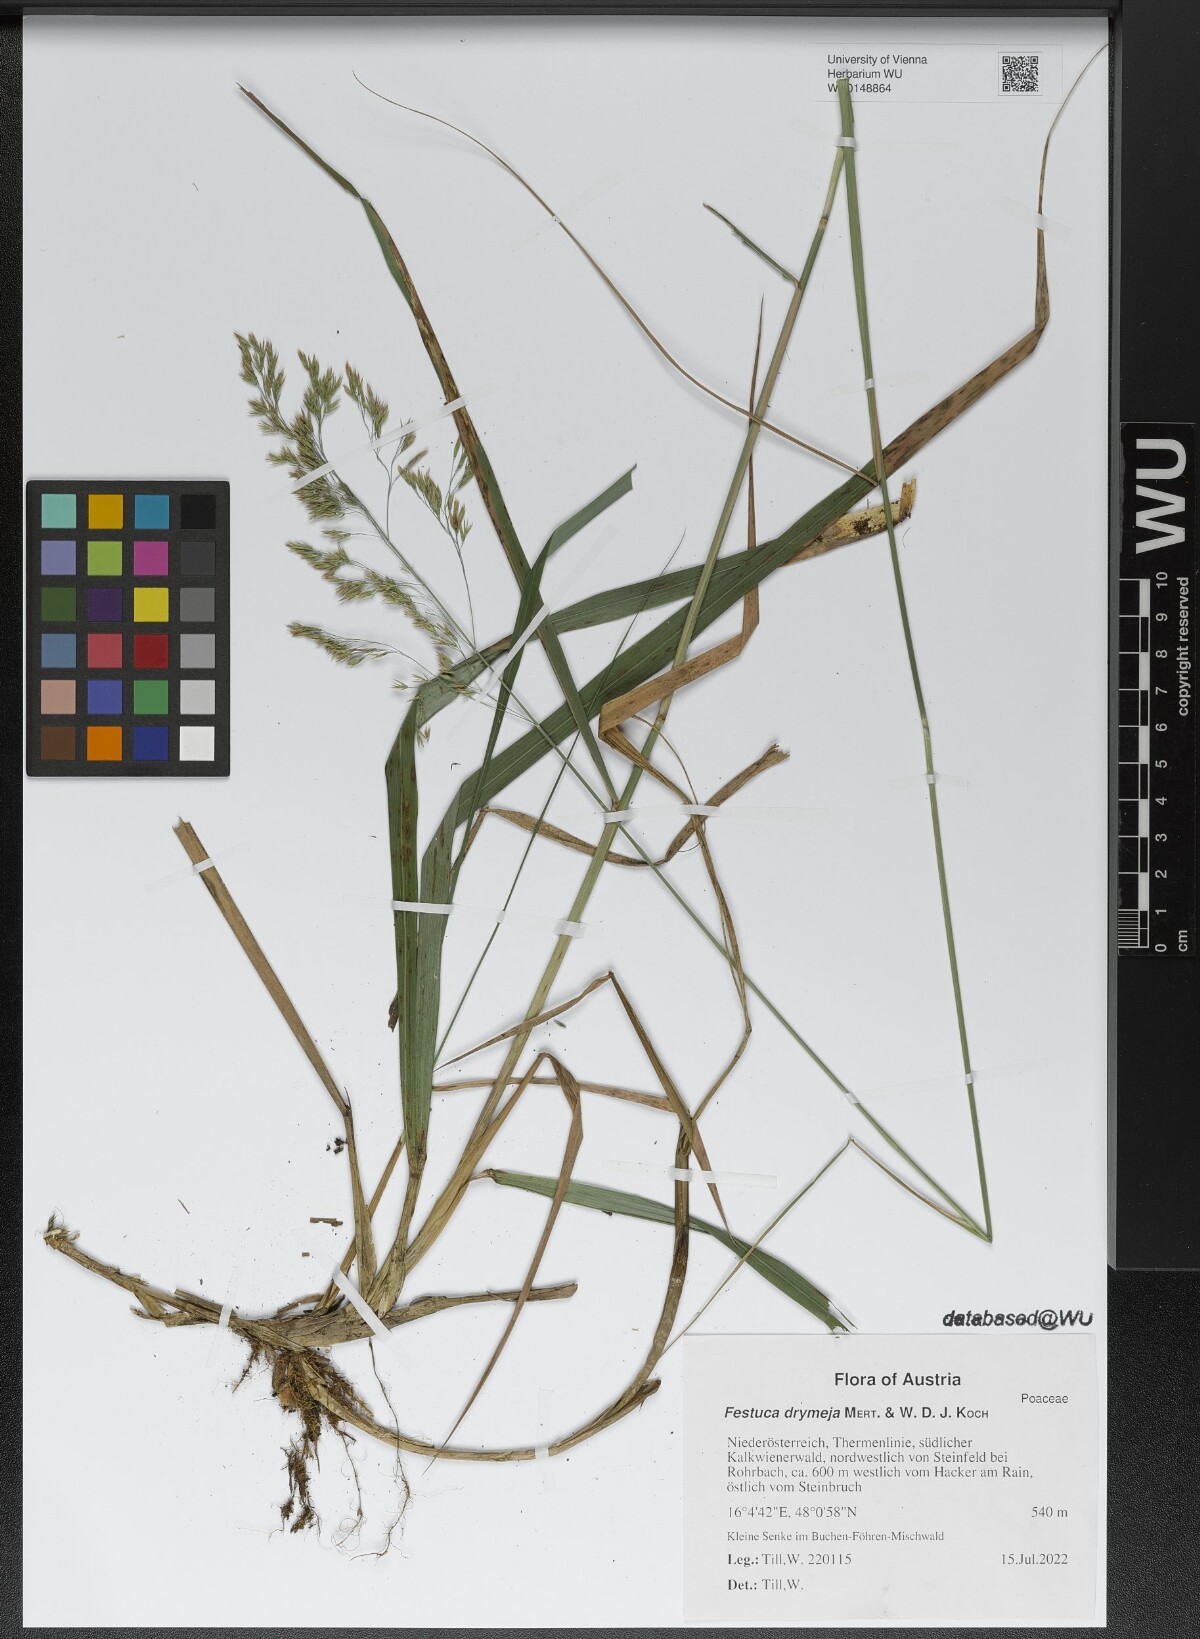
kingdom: Plantae
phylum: Tracheophyta
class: Liliopsida
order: Poales
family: Poaceae
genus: Festuca
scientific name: Festuca drymeja
